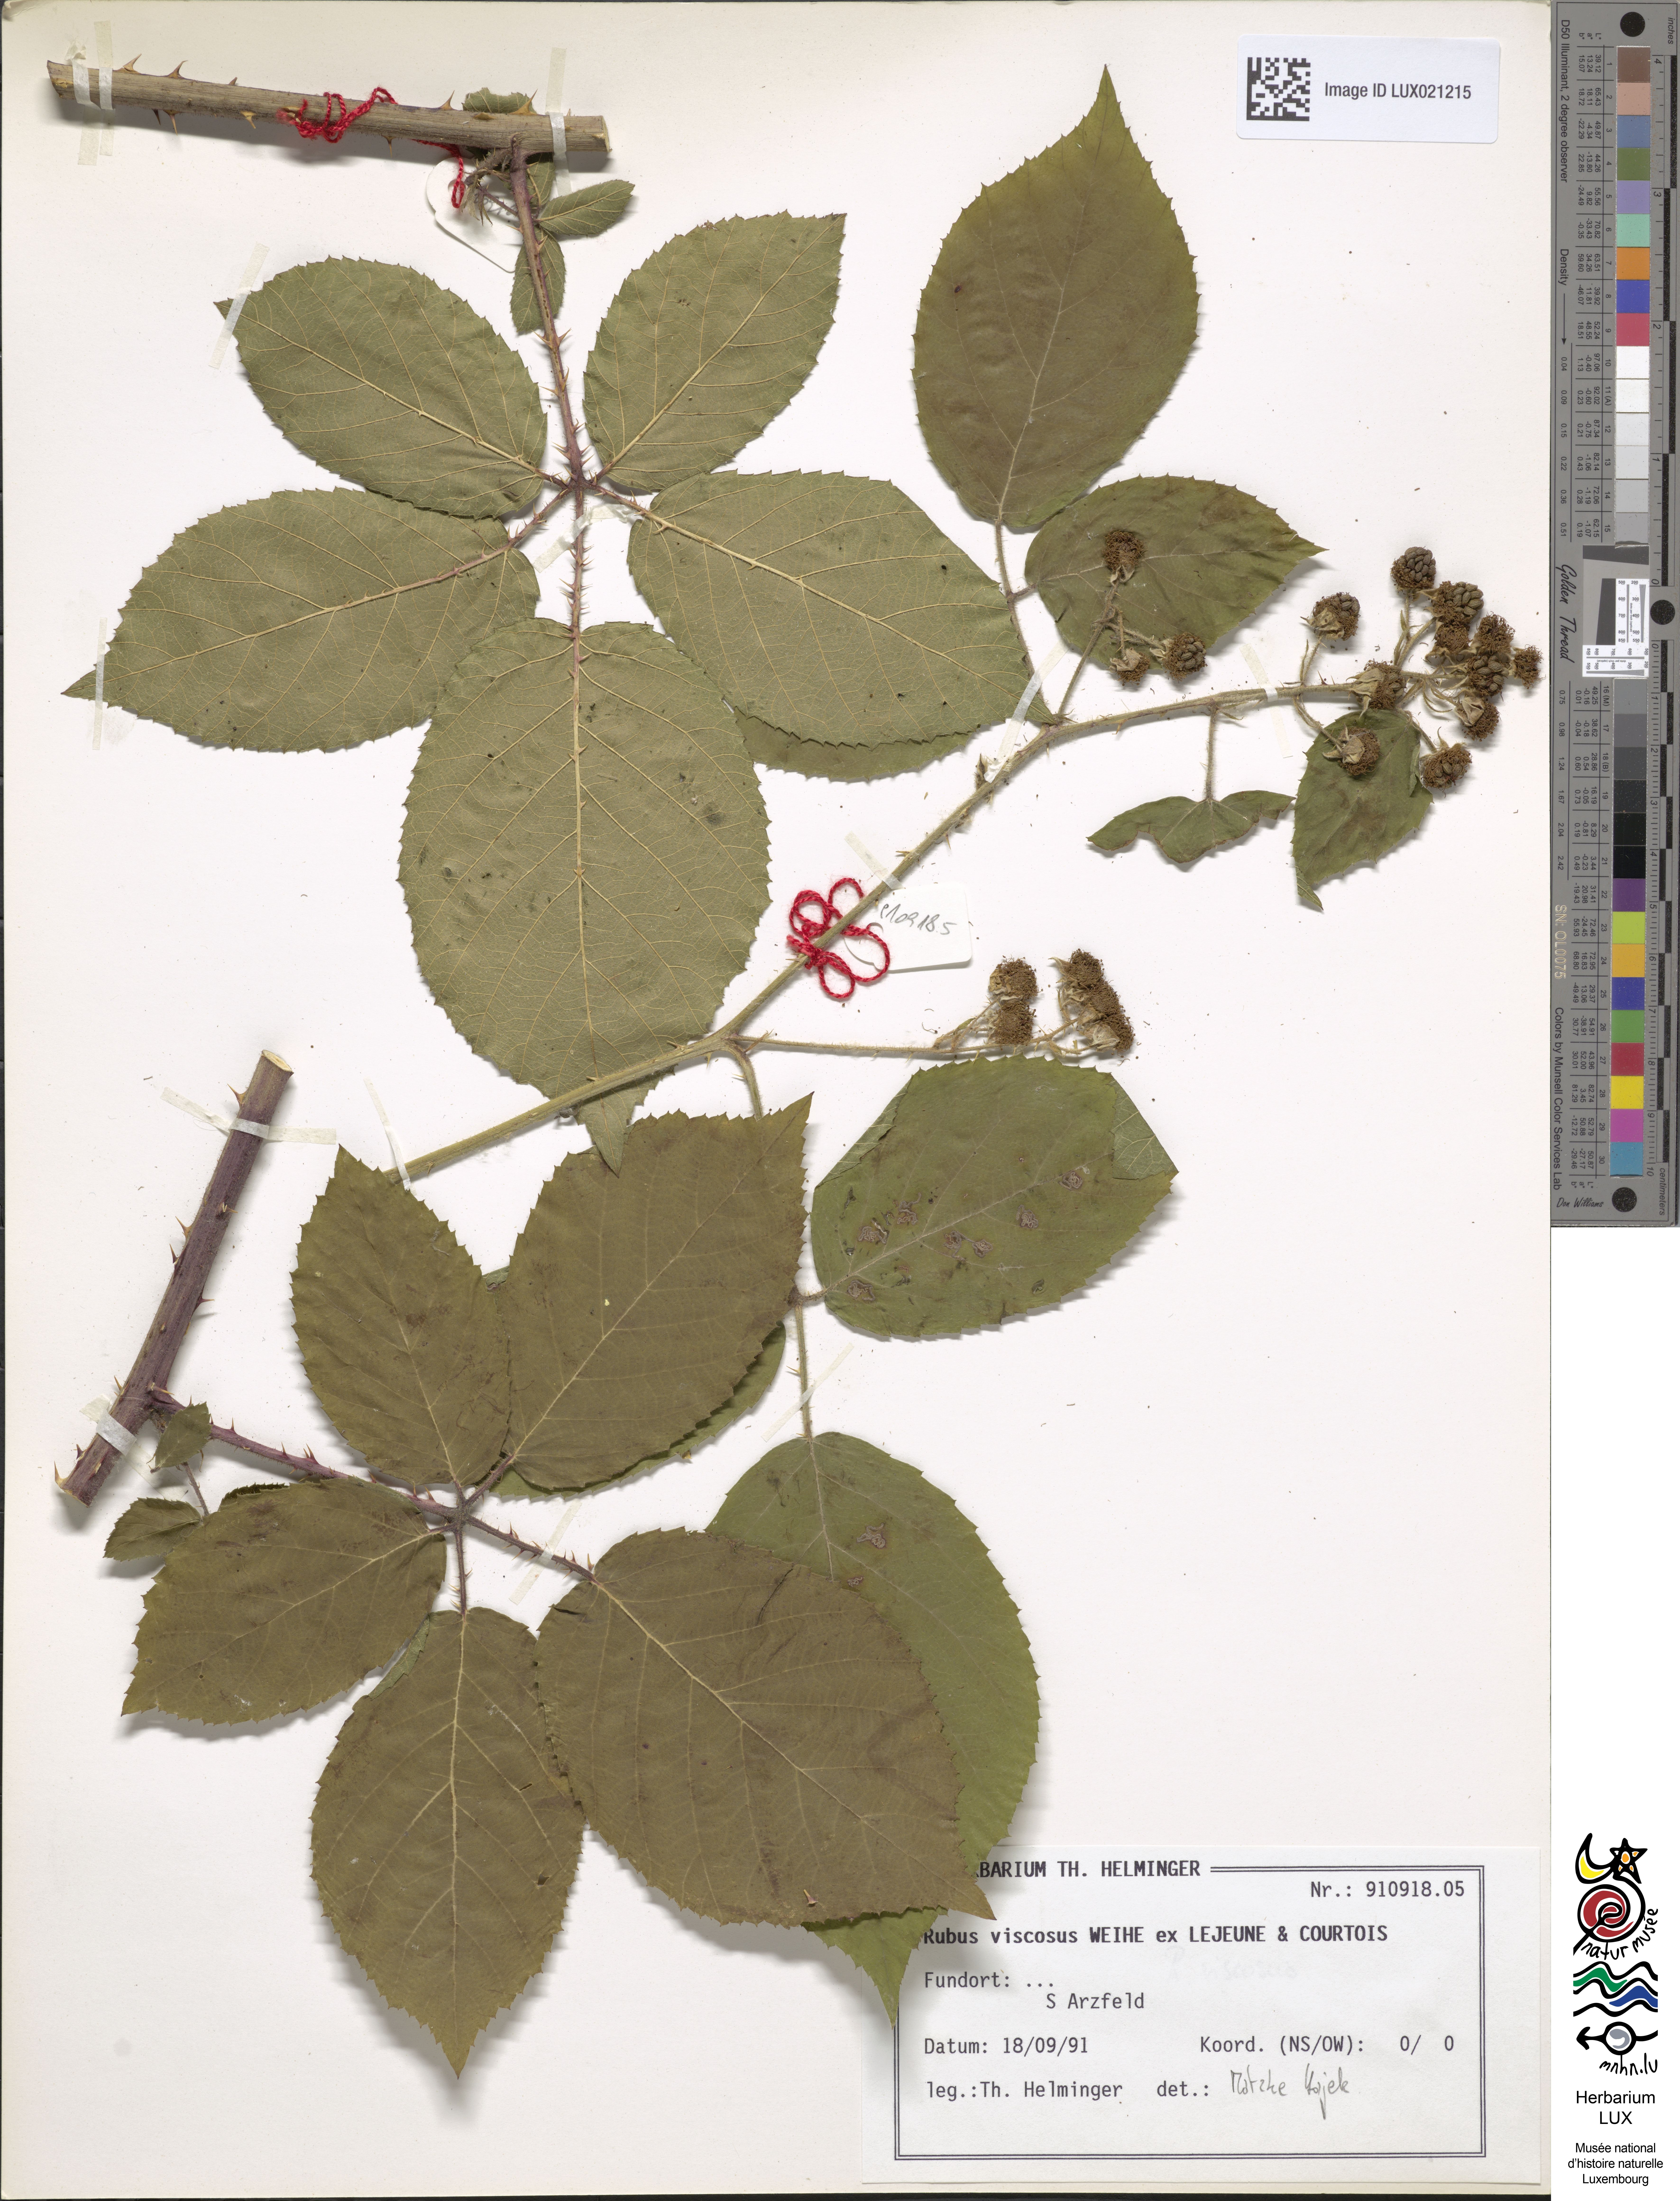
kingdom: Plantae
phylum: Tracheophyta
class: Magnoliopsida
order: Rosales
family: Rosaceae
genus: Rubus
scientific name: Rubus viscosus
